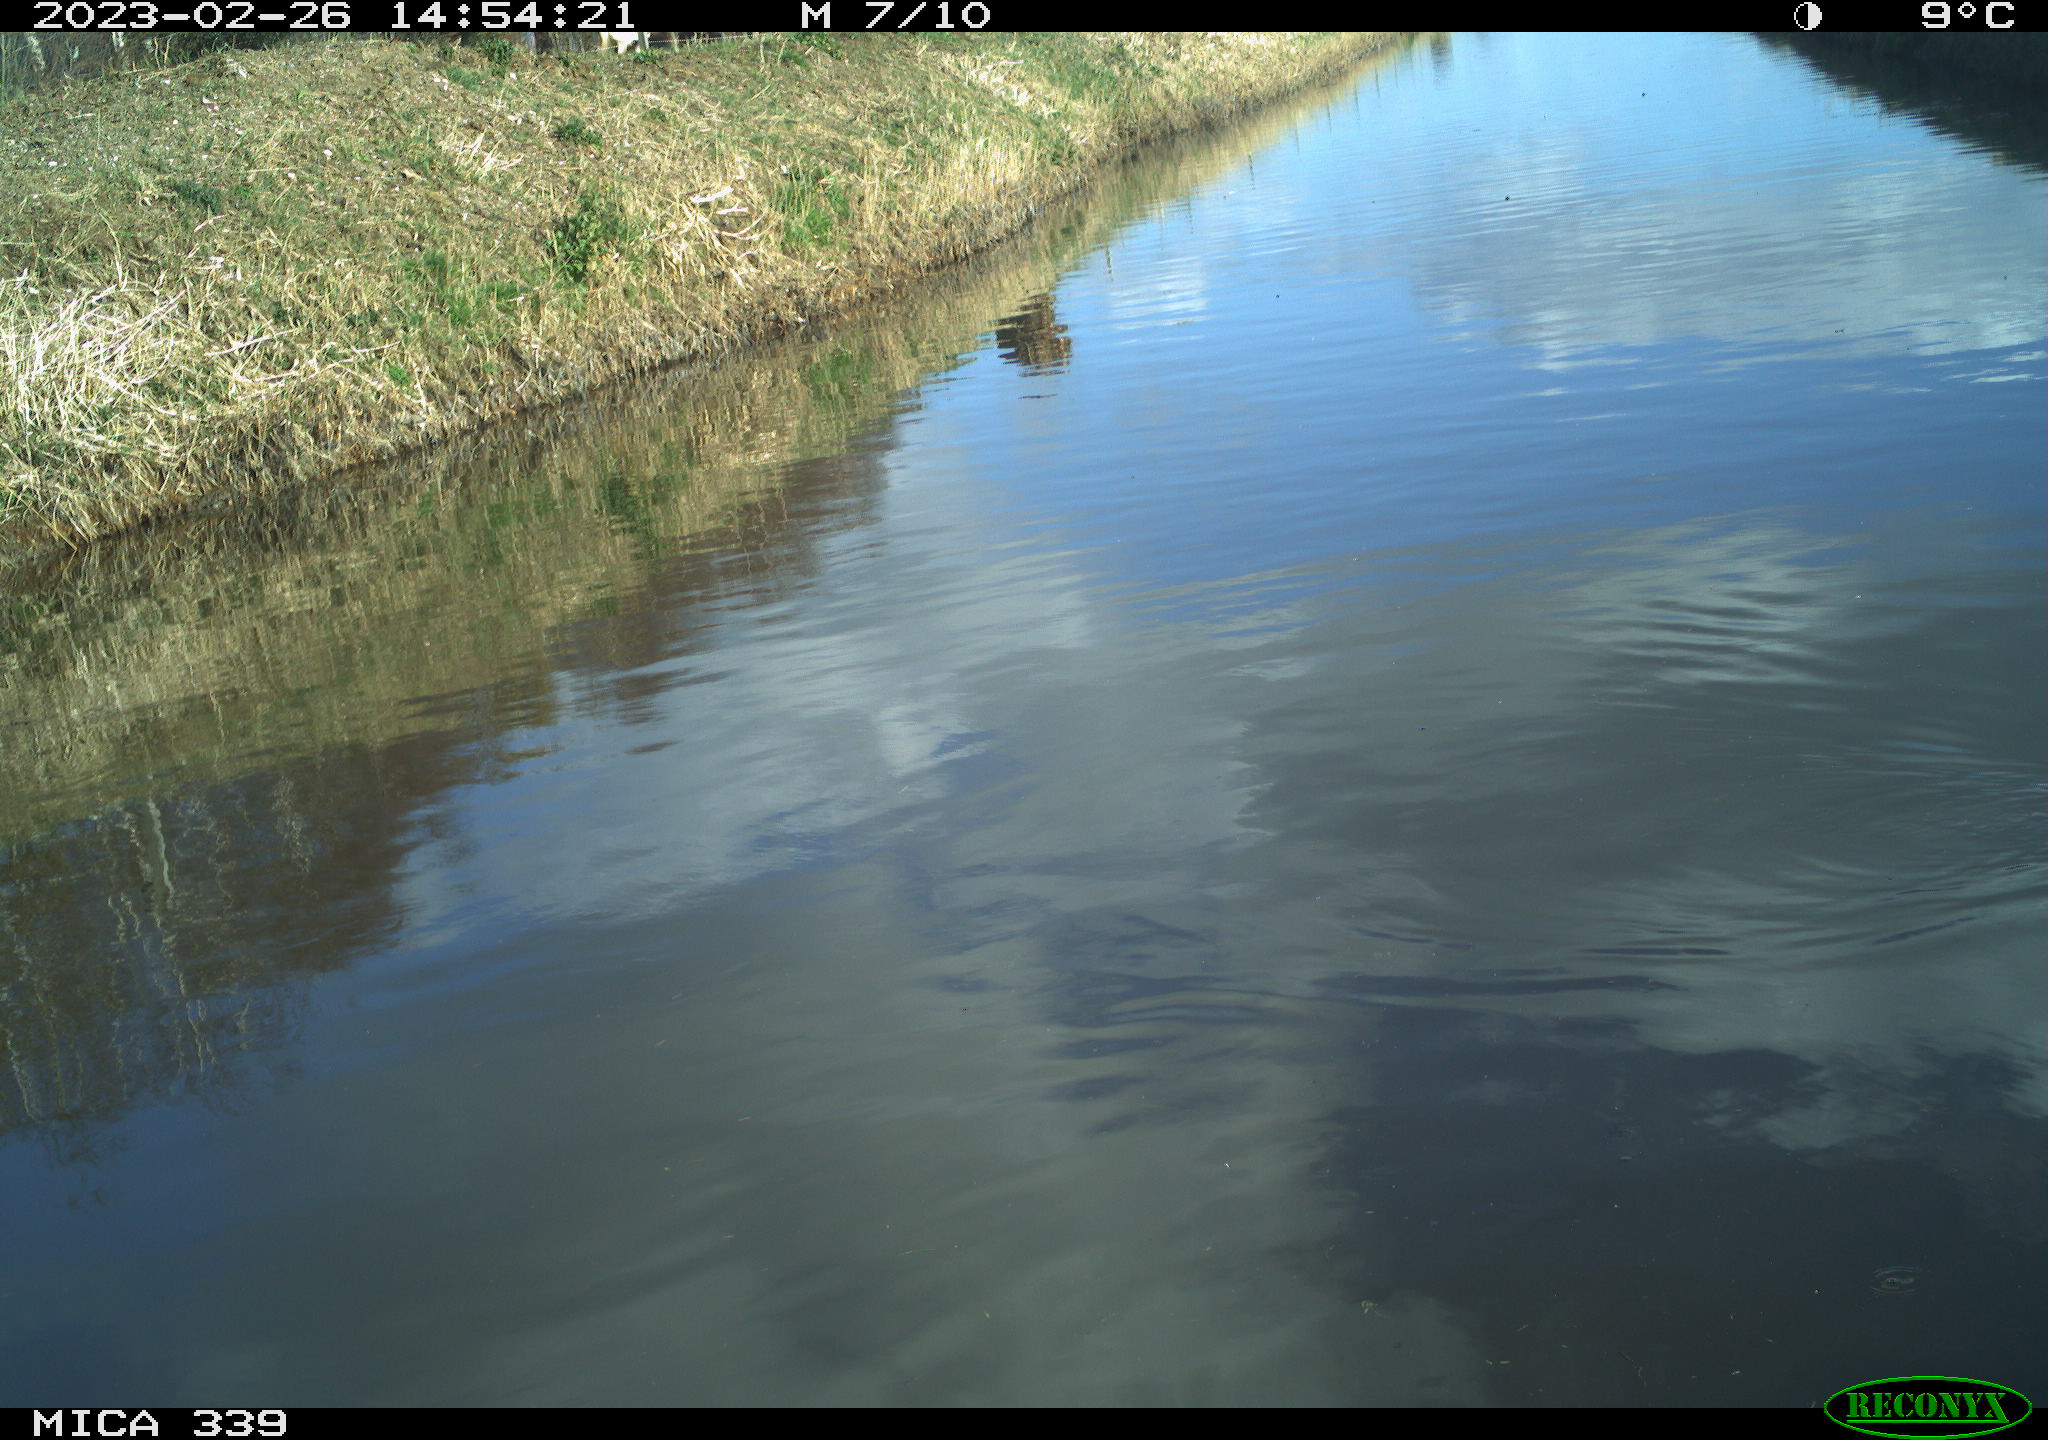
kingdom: Animalia
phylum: Chordata
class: Aves
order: Gruiformes
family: Rallidae
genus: Gallinula
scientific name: Gallinula chloropus
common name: Common moorhen
